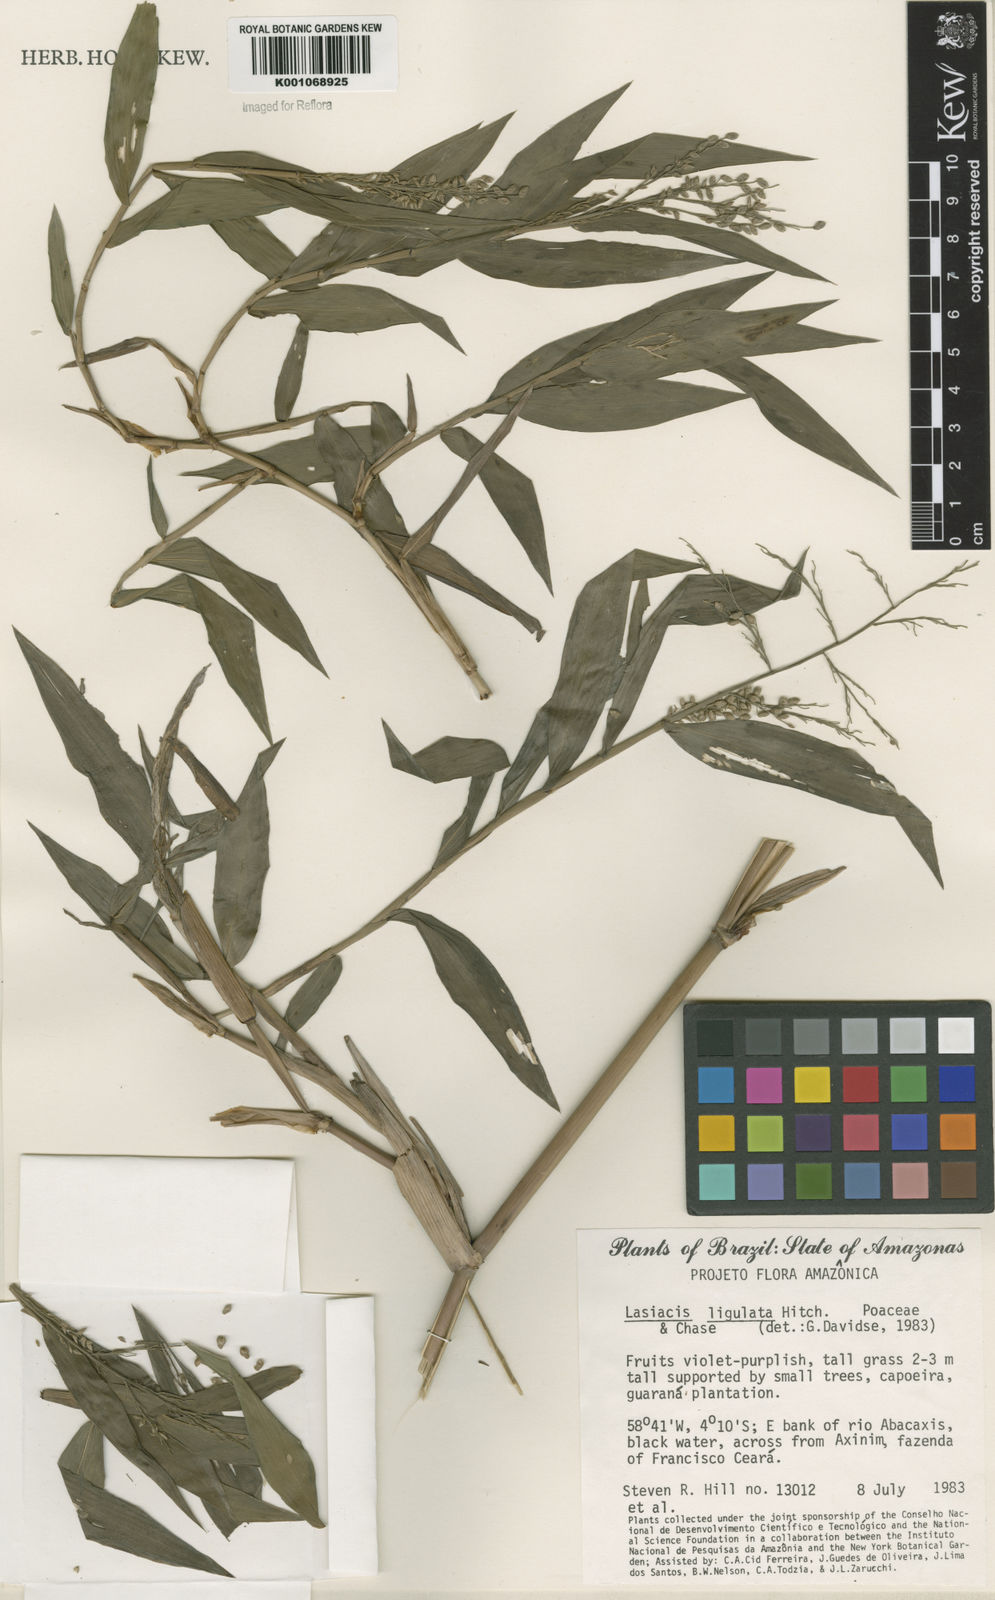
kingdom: Plantae
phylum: Tracheophyta
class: Liliopsida
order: Poales
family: Poaceae
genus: Lasiacis
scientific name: Lasiacis ligulata
